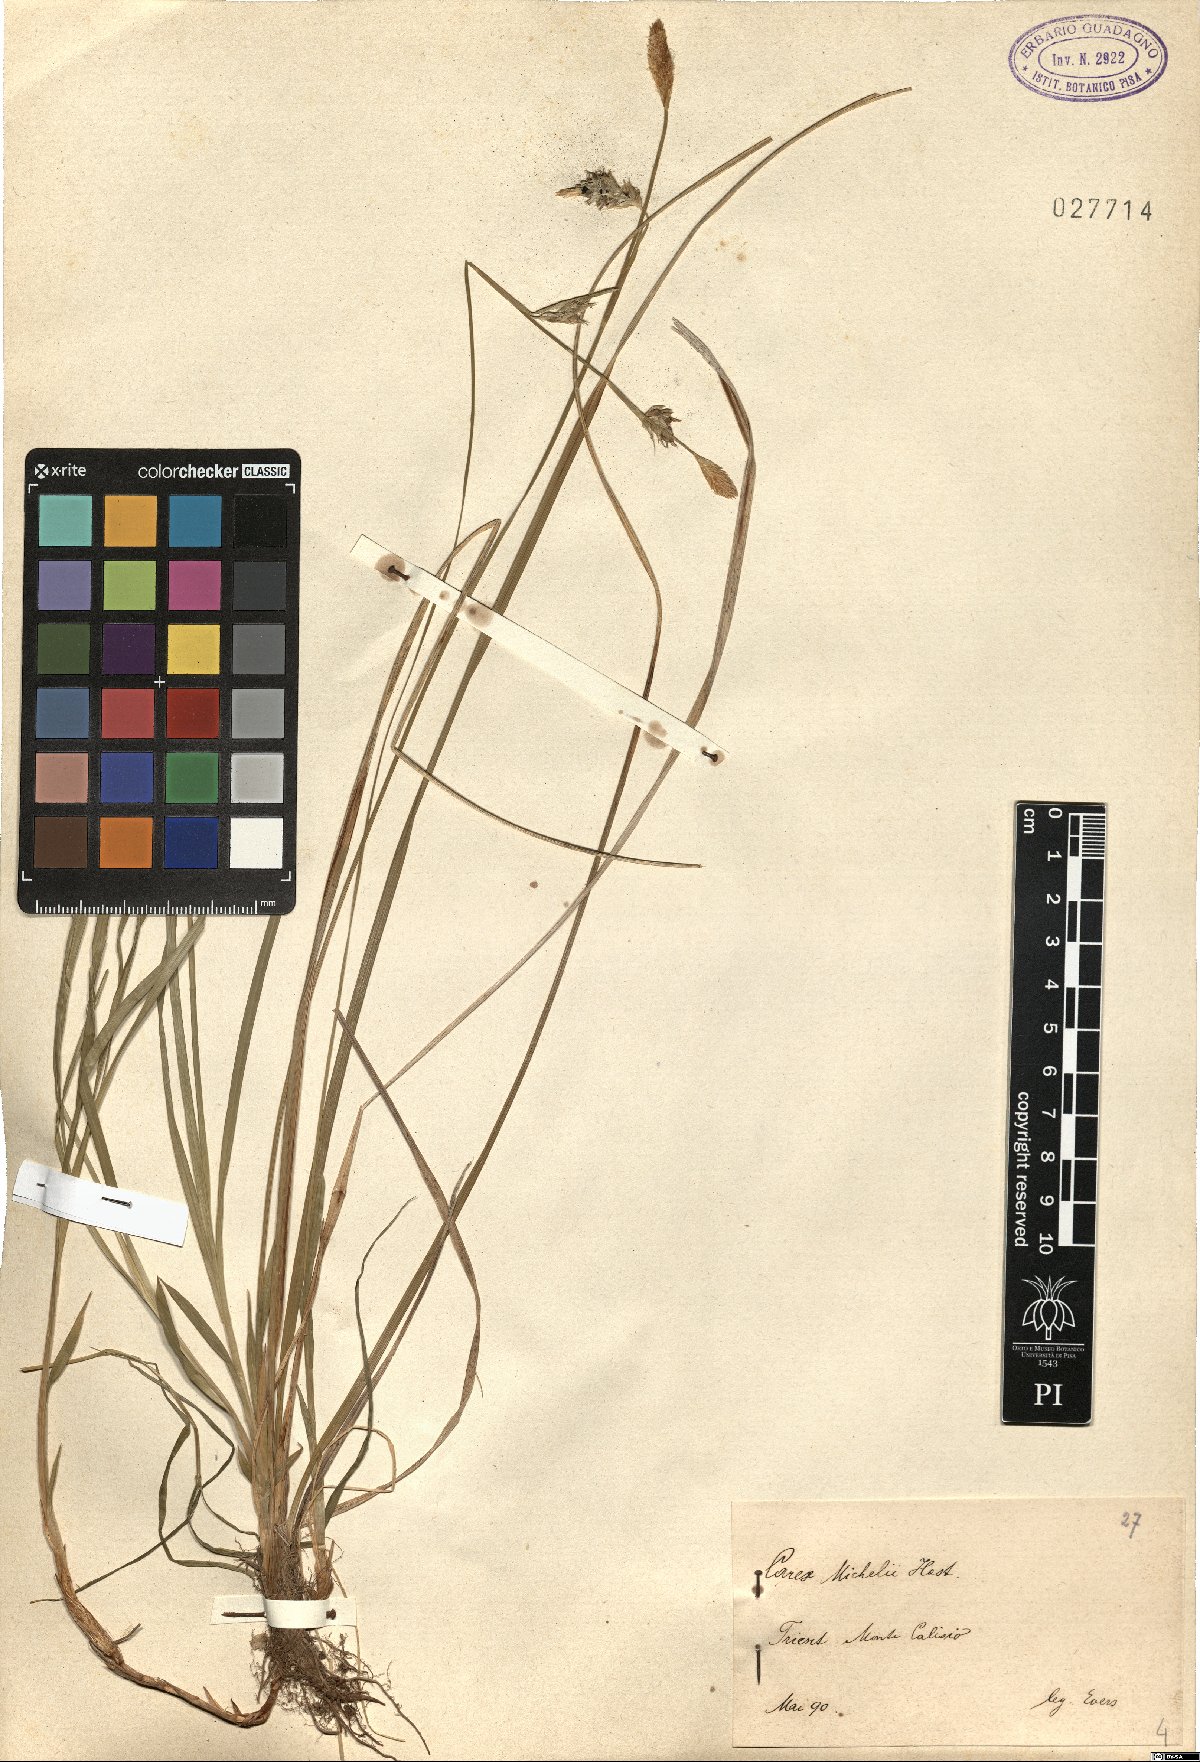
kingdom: Plantae
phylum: Tracheophyta
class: Liliopsida
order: Poales
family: Cyperaceae
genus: Carex
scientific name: Carex michelii
